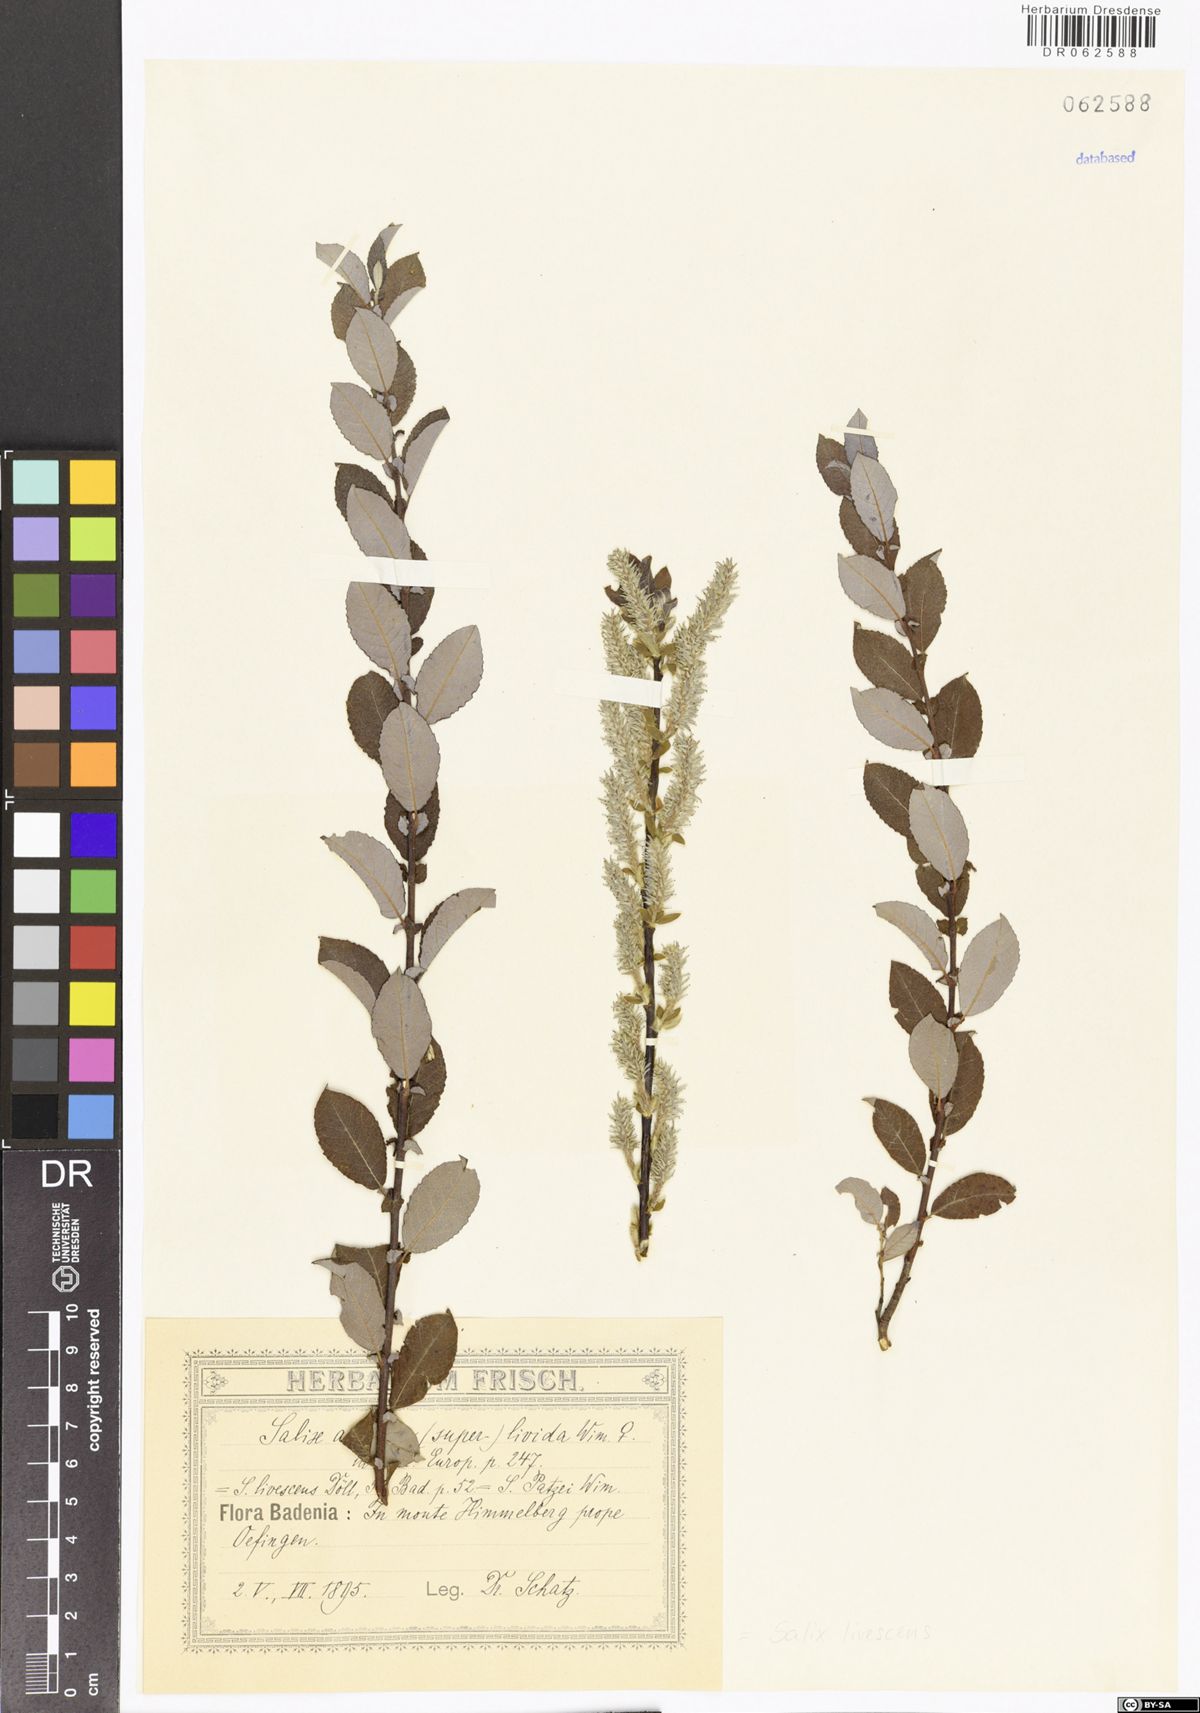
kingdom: Plantae
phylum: Tracheophyta
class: Magnoliopsida
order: Malpighiales
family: Salicaceae
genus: Salix
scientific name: Salix livescens
